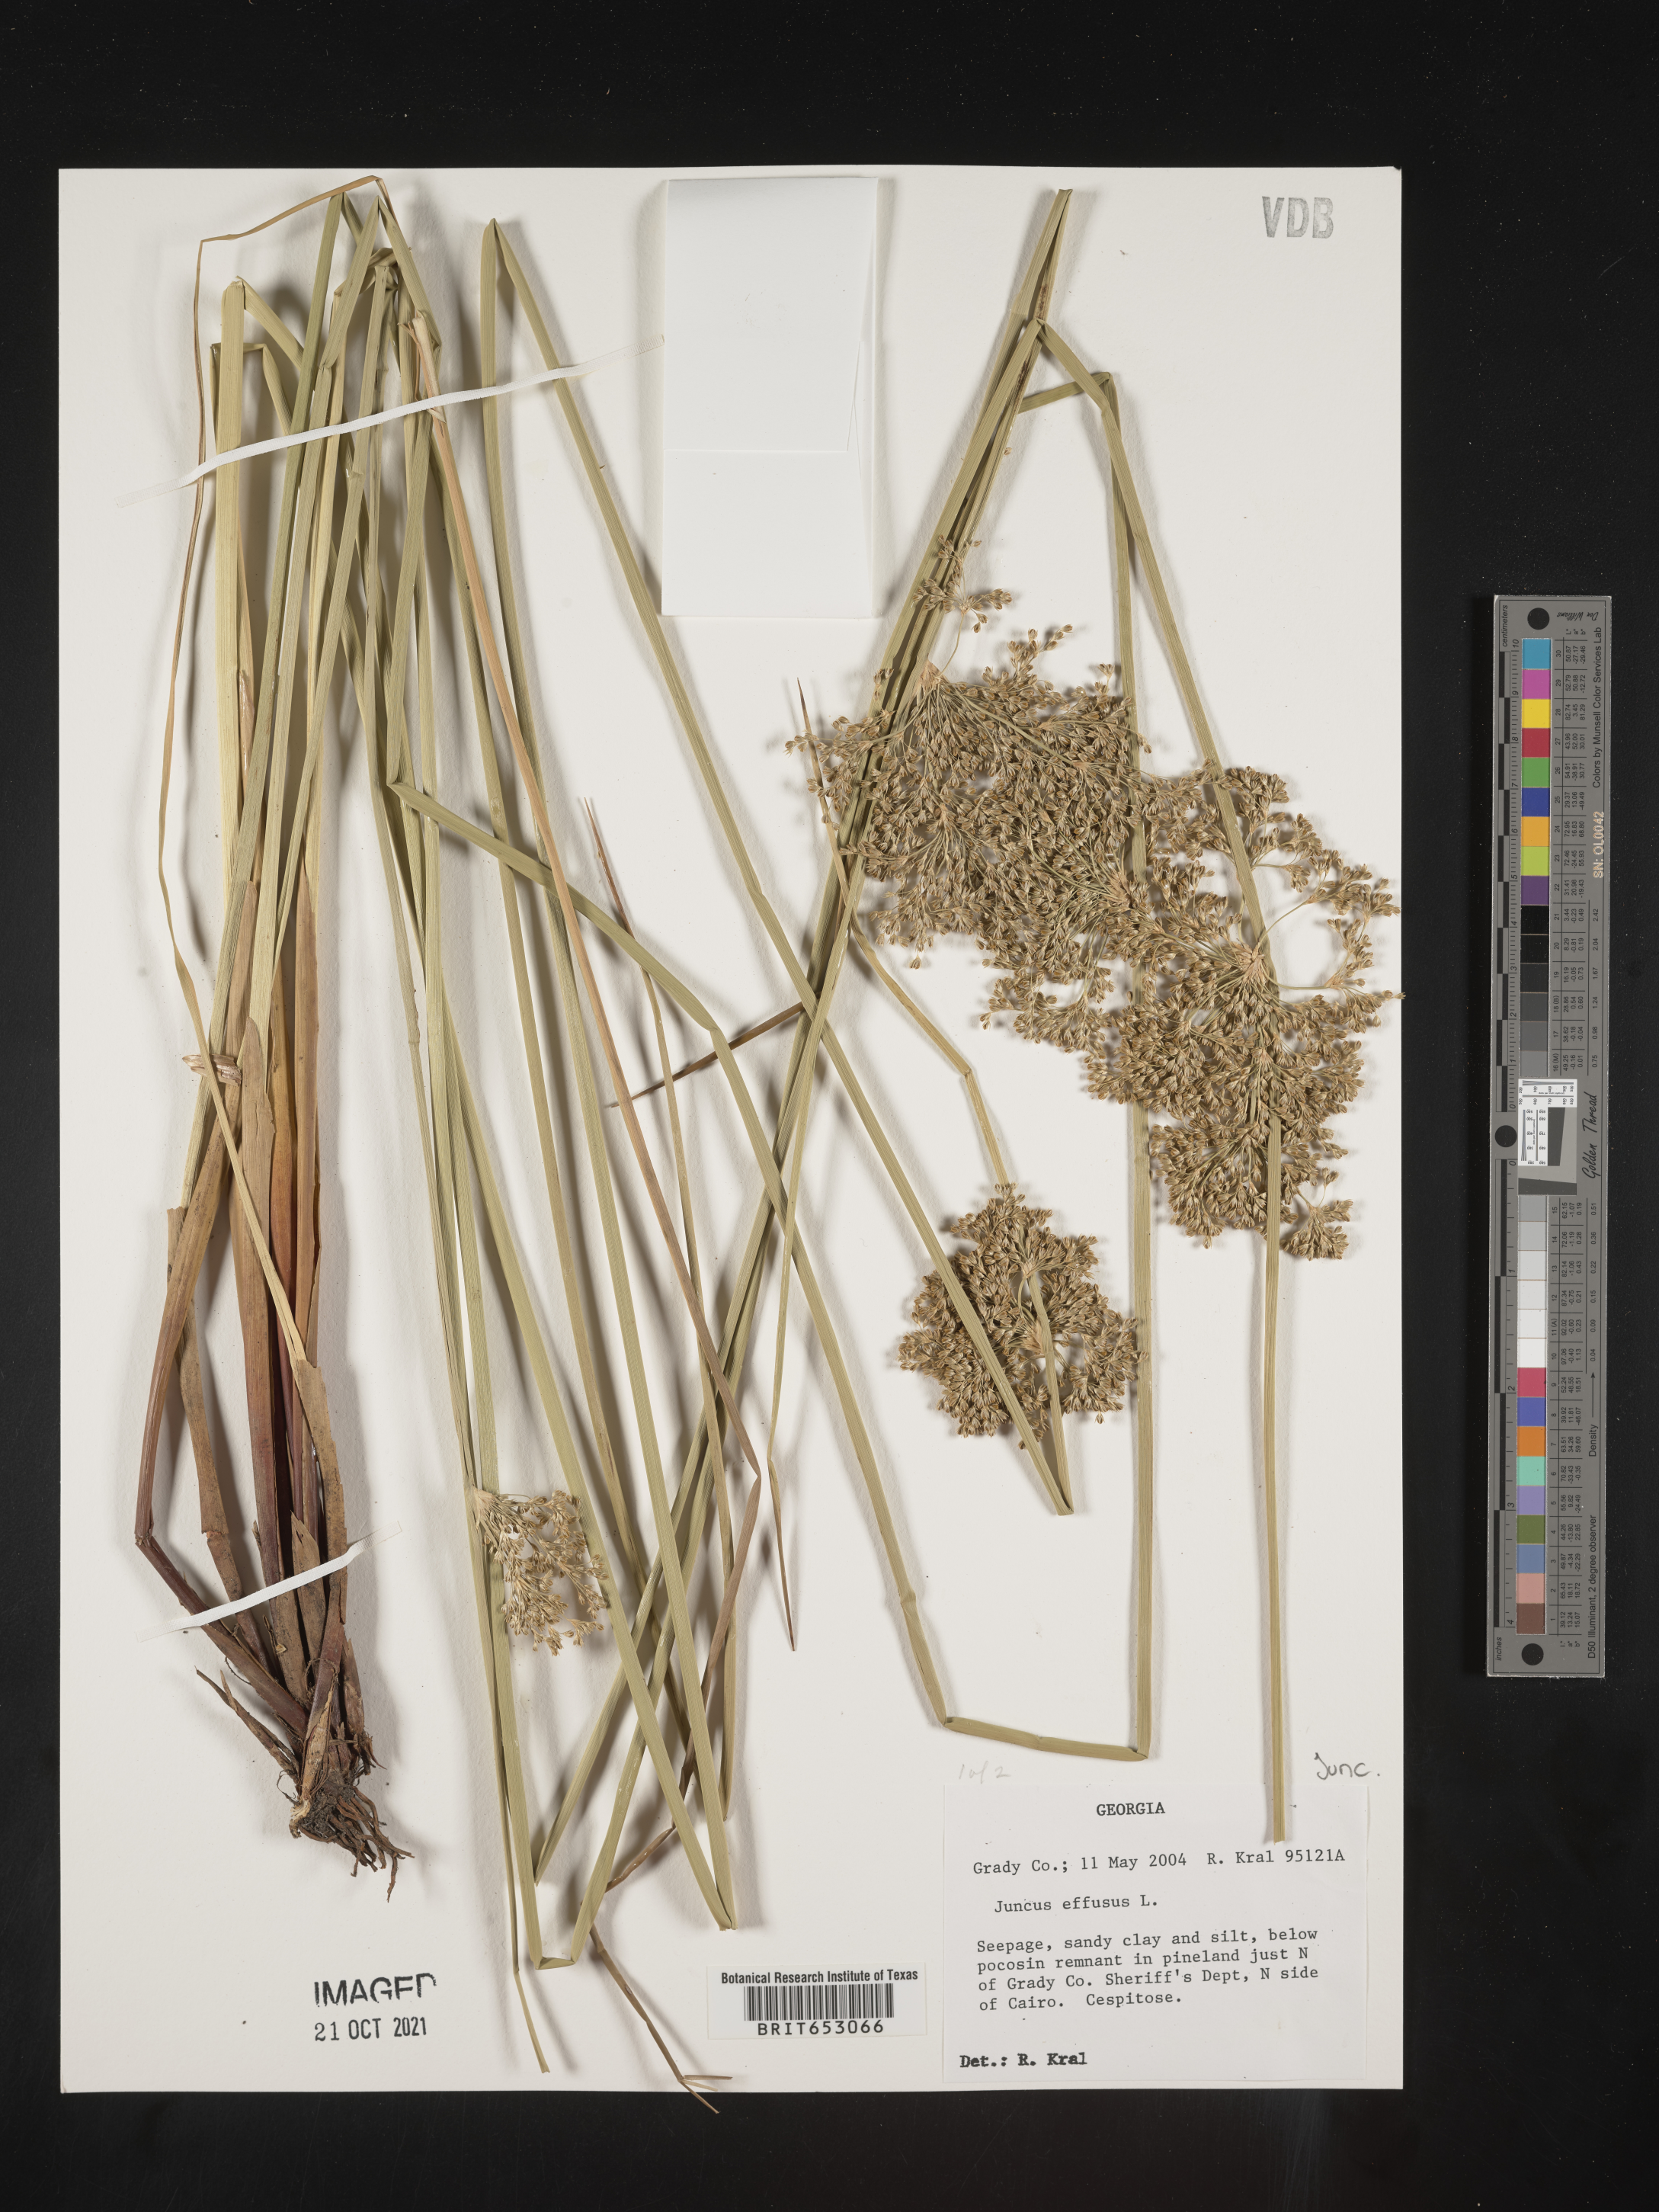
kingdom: Plantae
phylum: Tracheophyta
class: Liliopsida
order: Poales
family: Juncaceae
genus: Juncus
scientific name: Juncus effusus
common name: Soft rush
